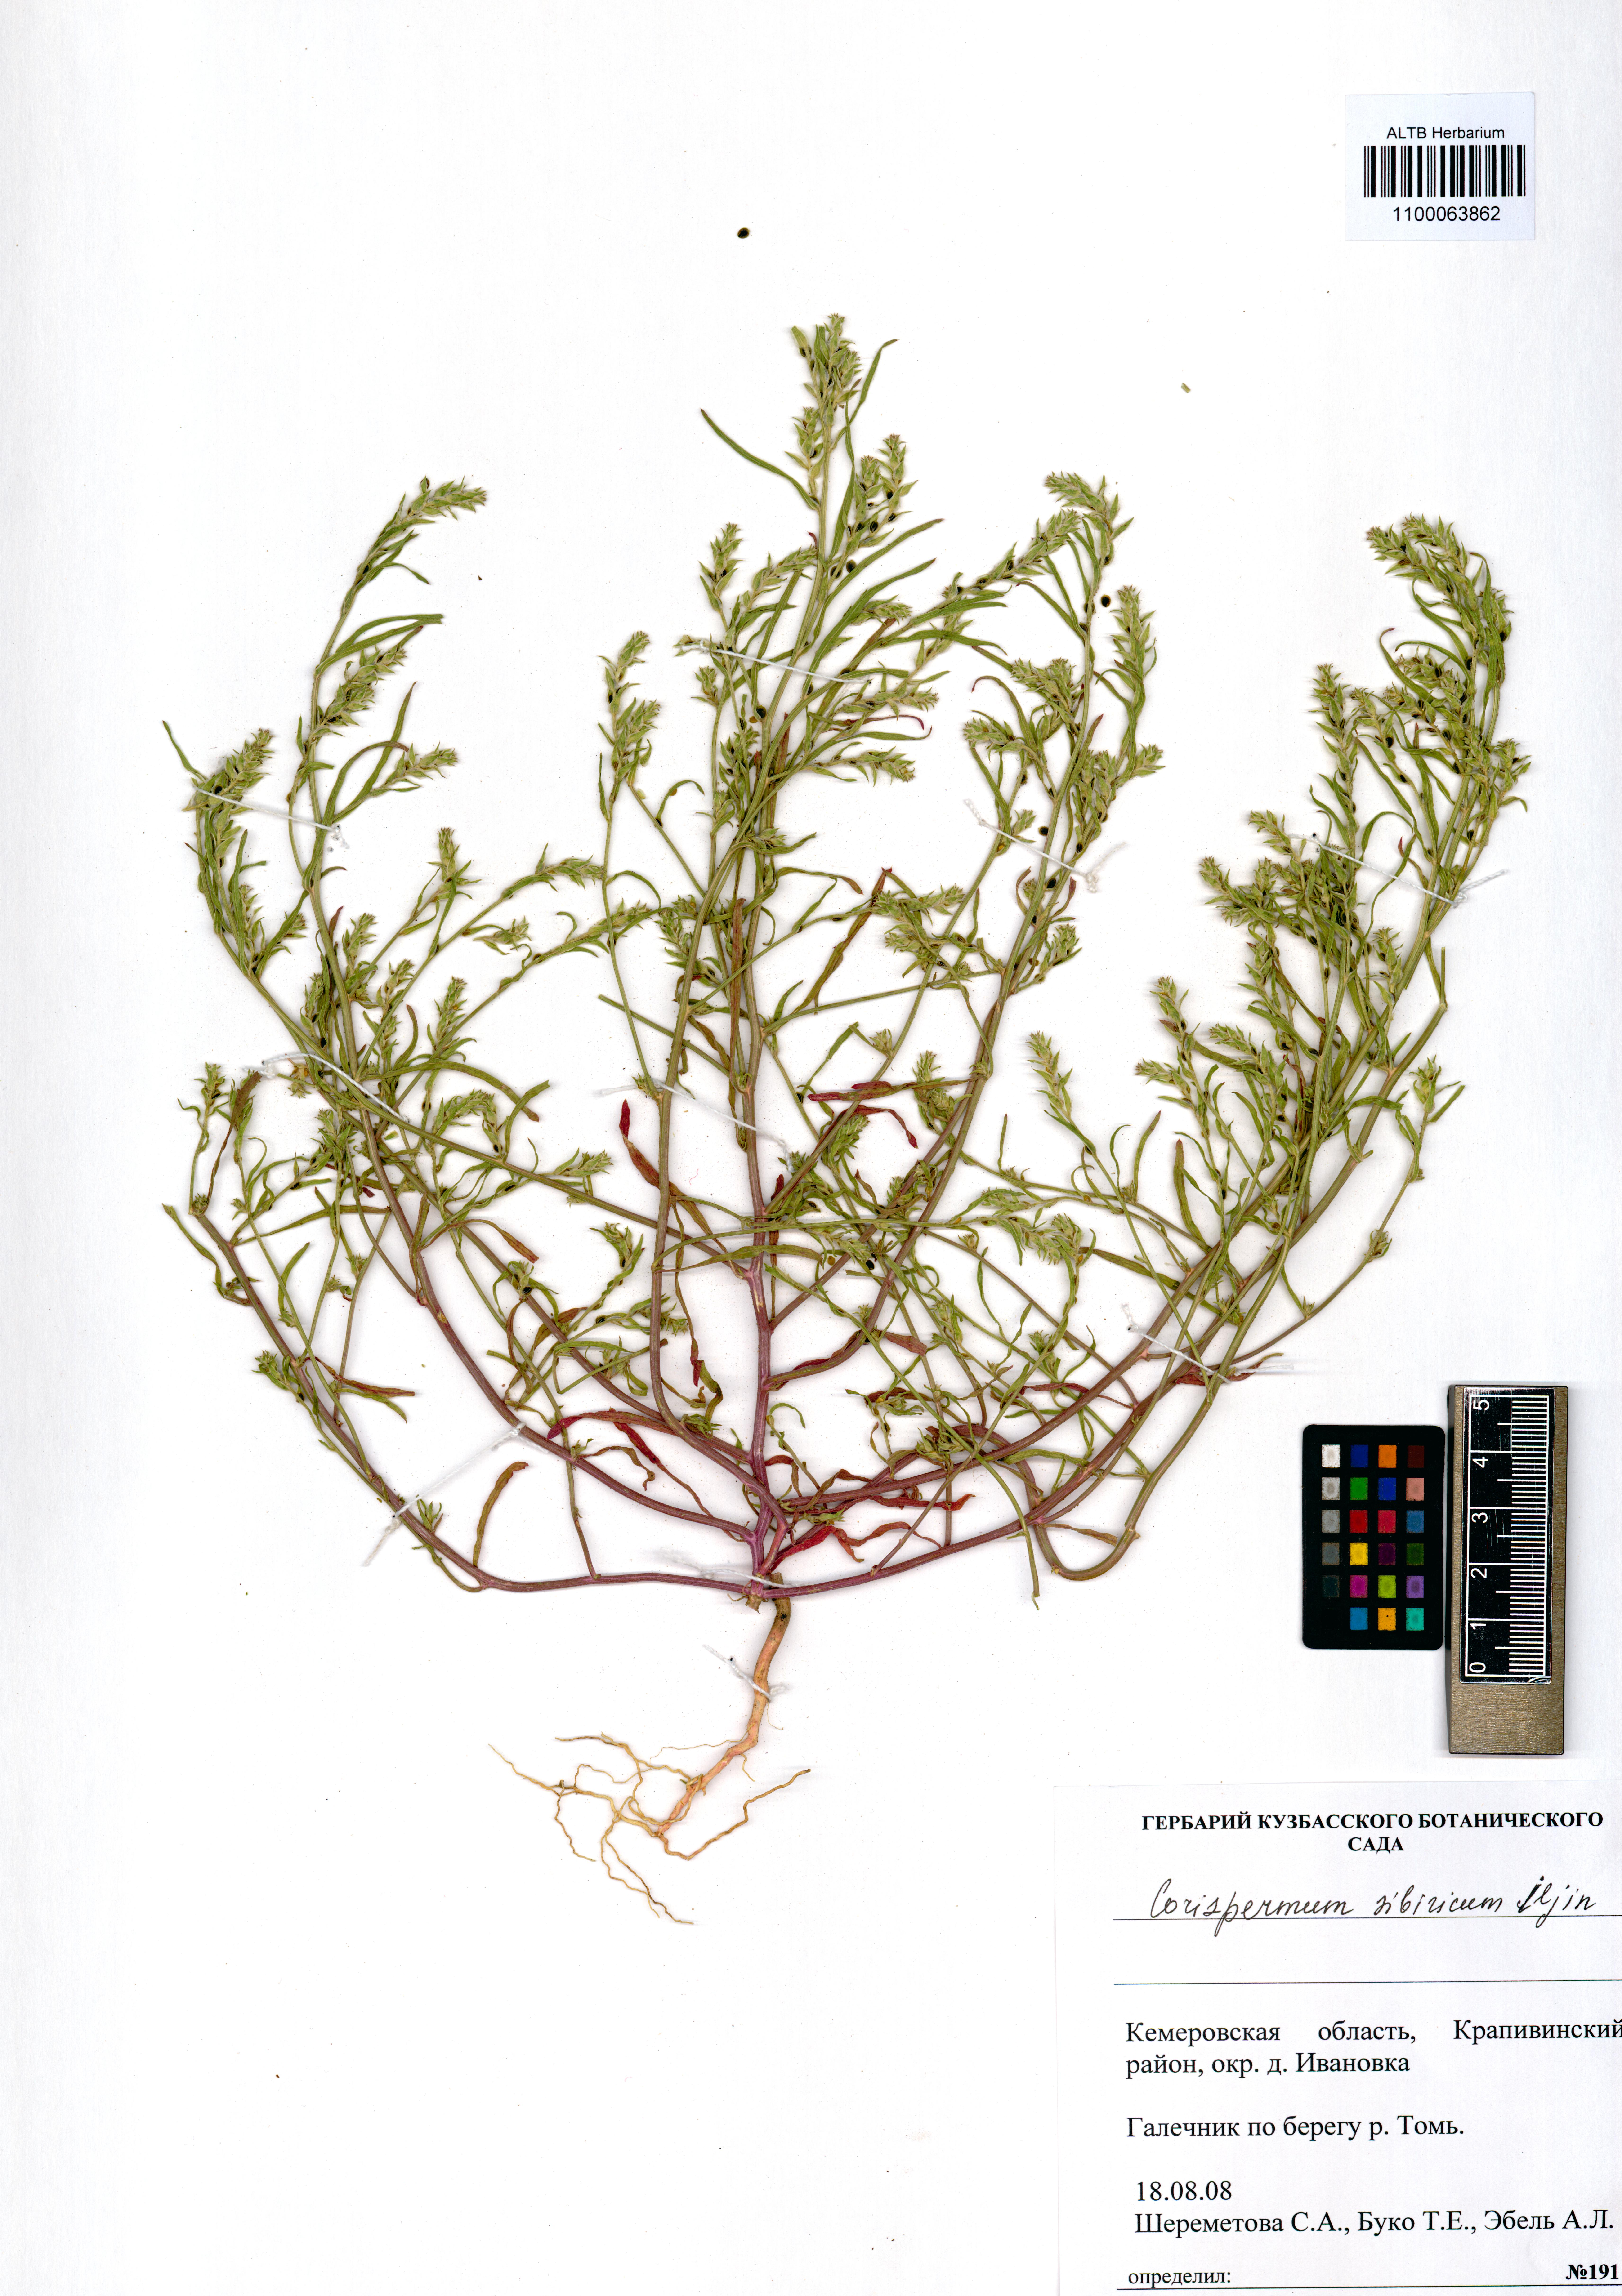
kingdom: Plantae
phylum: Tracheophyta
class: Magnoliopsida
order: Caryophyllales
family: Amaranthaceae
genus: Corispermum
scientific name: Corispermum sibiricum
